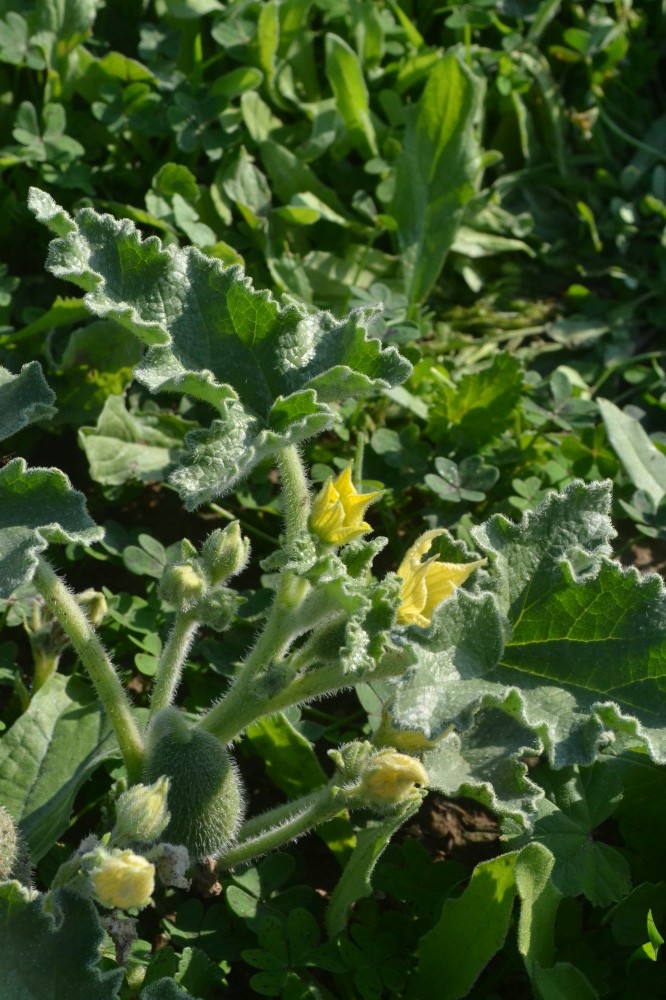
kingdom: Plantae
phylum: Tracheophyta
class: Magnoliopsida
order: Cucurbitales
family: Cucurbitaceae
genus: Ecballium
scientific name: Ecballium elaterium
